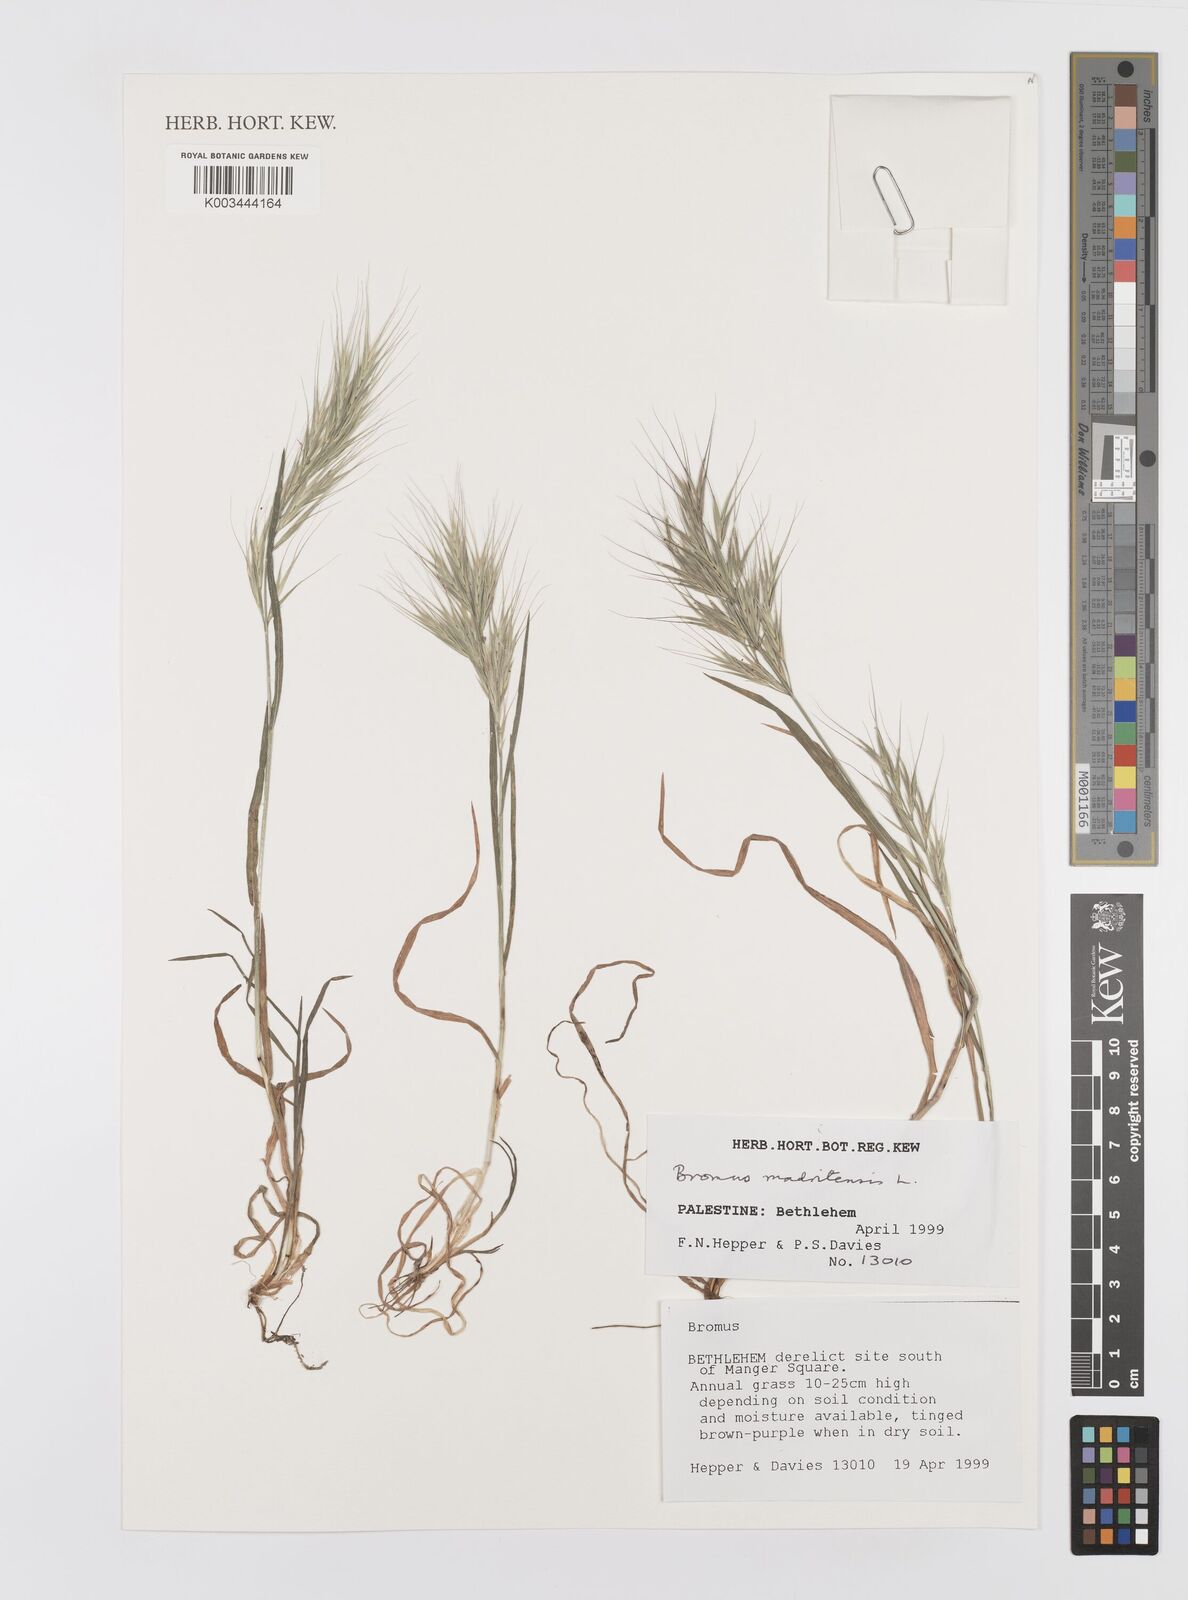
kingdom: Plantae
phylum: Tracheophyta
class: Liliopsida
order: Poales
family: Poaceae
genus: Bromus
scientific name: Bromus madritensis
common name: Compact brome
